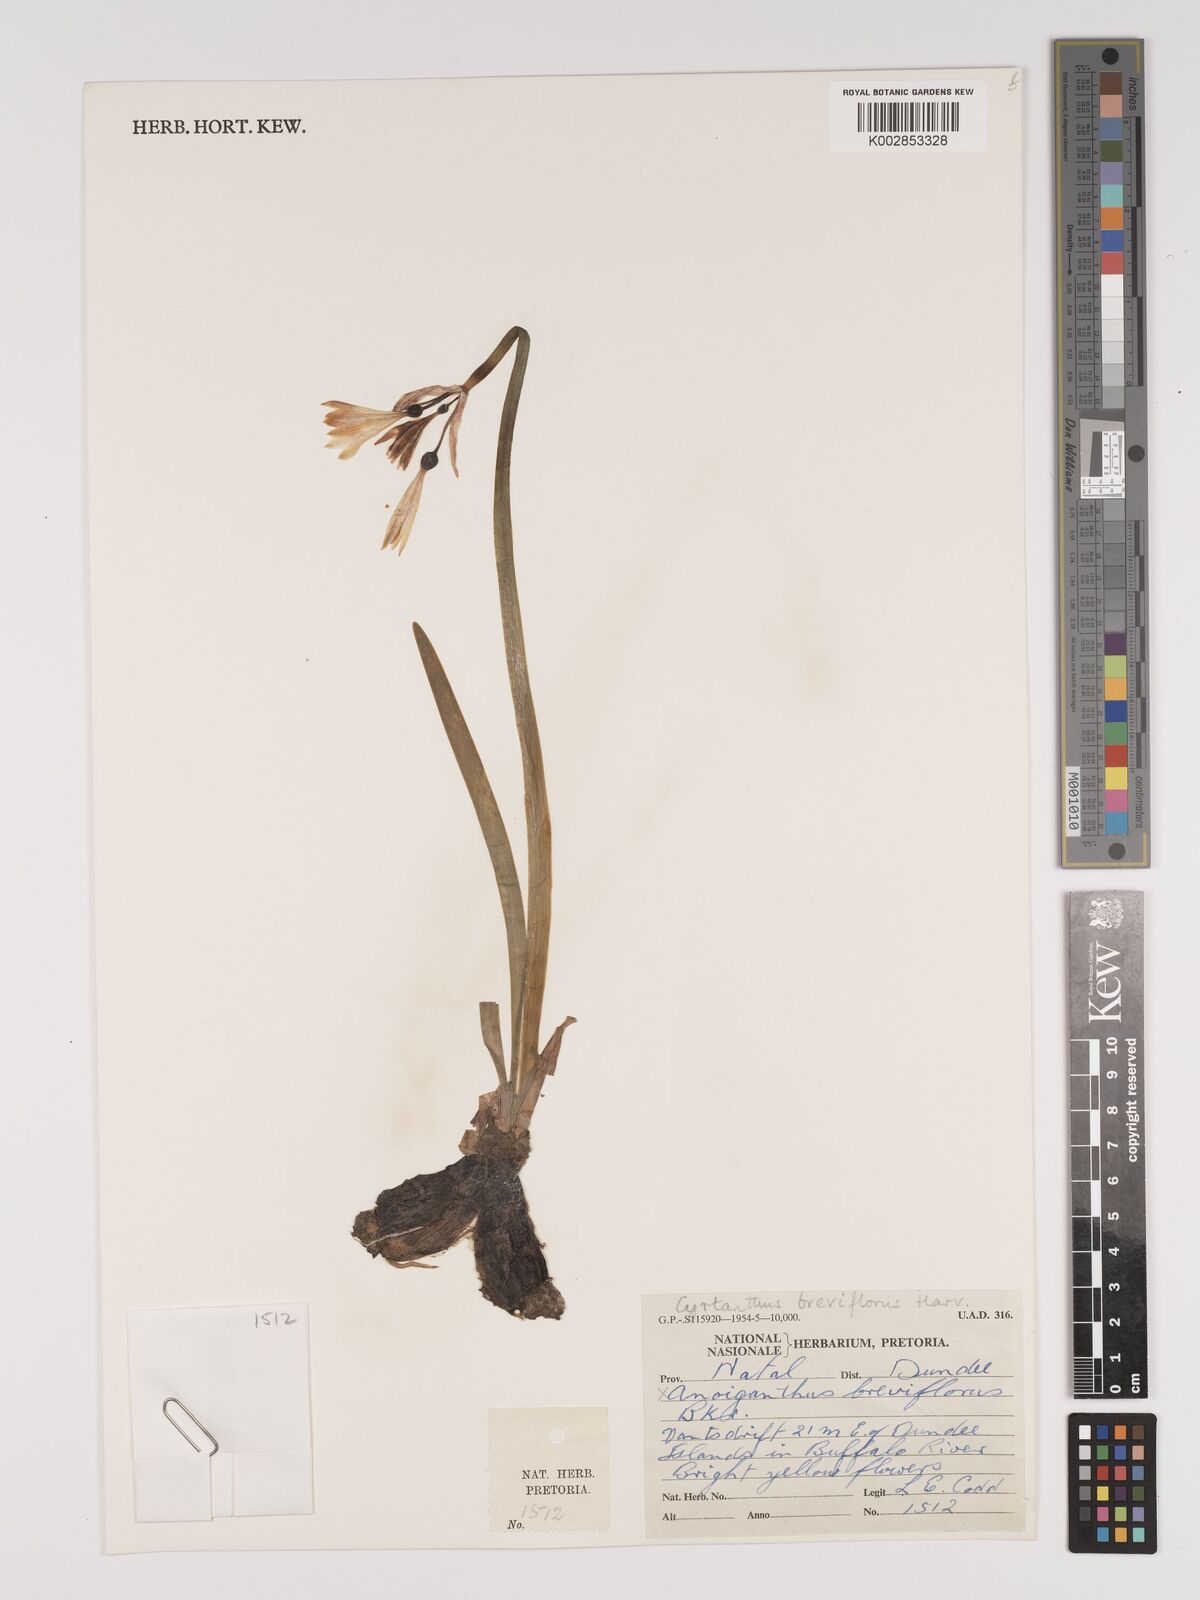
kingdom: Plantae
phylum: Tracheophyta
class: Liliopsida
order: Asparagales
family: Amaryllidaceae
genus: Cyrtanthus
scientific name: Cyrtanthus breviflorus
